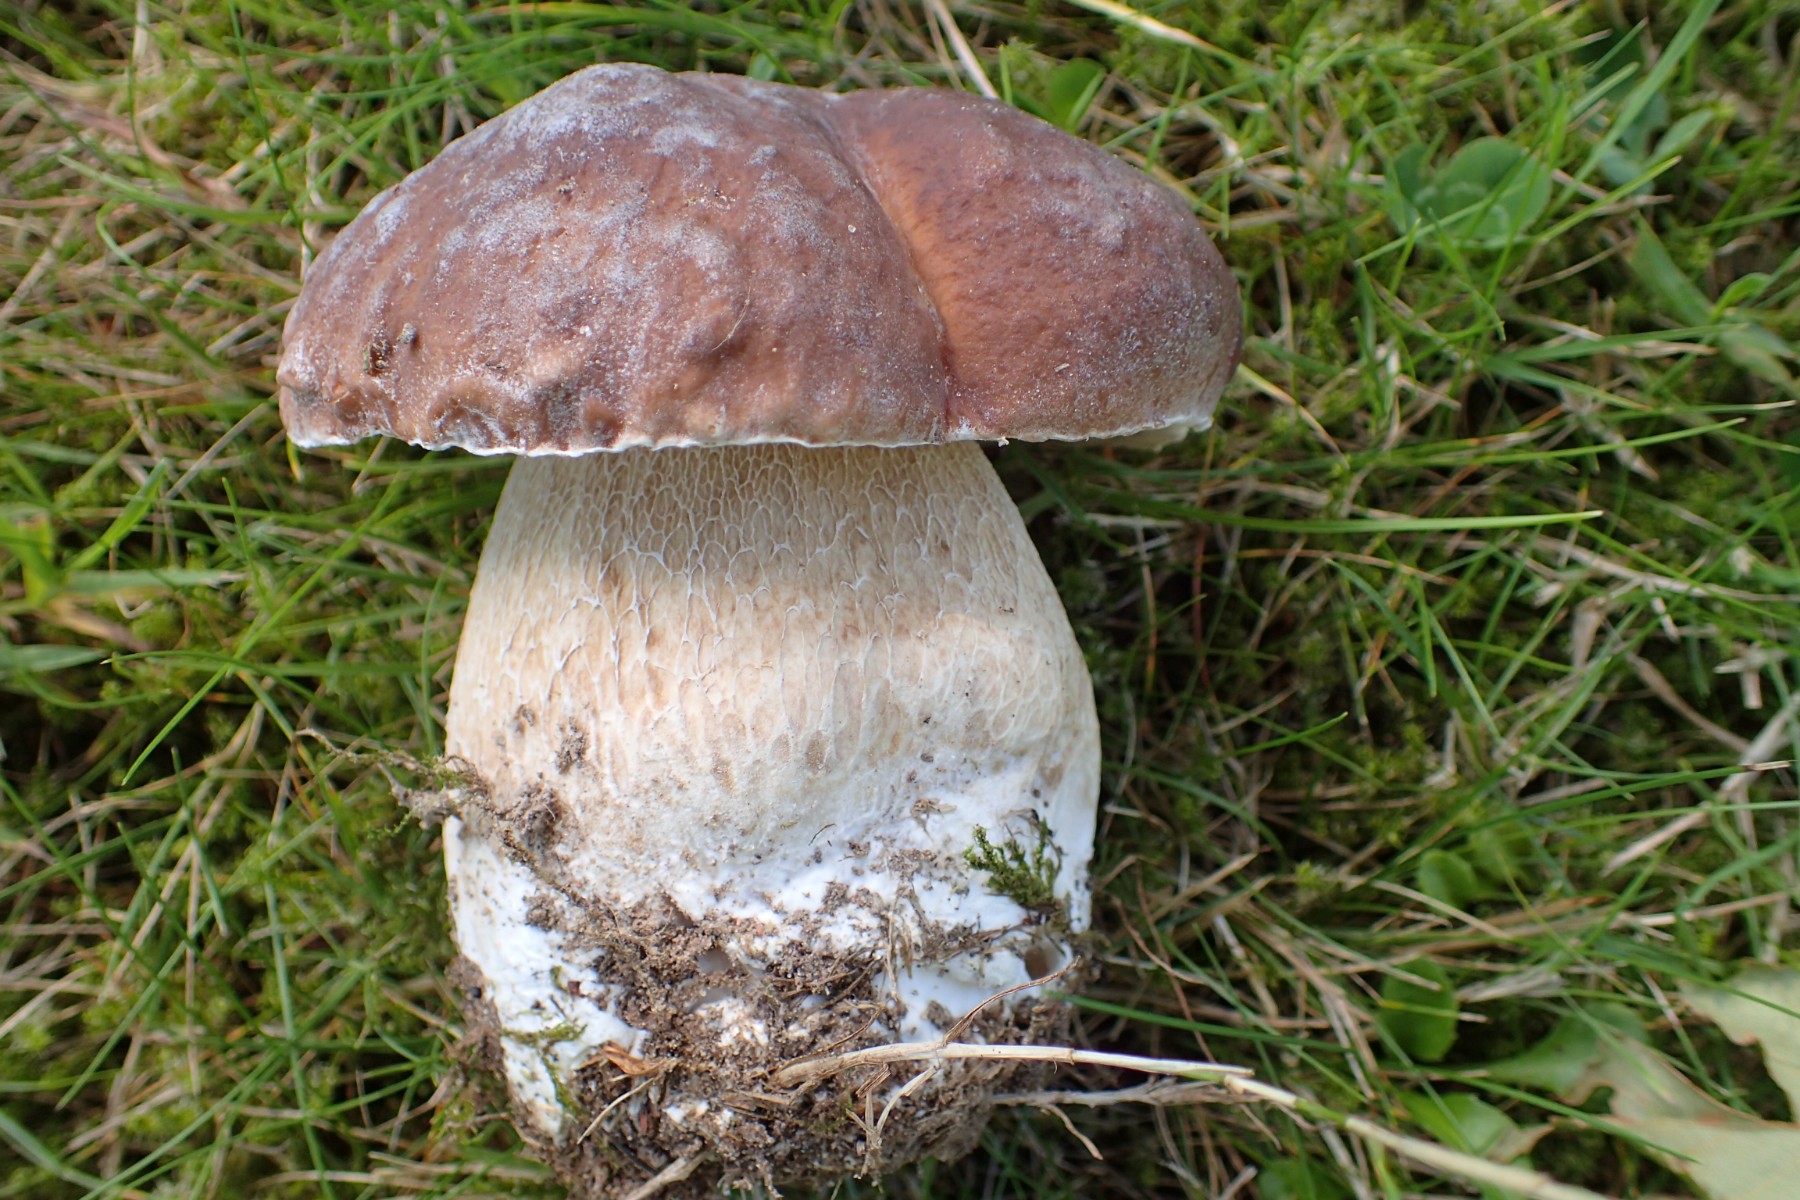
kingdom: Fungi
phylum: Basidiomycota
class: Agaricomycetes
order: Boletales
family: Boletaceae
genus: Boletus
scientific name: Boletus edulis
